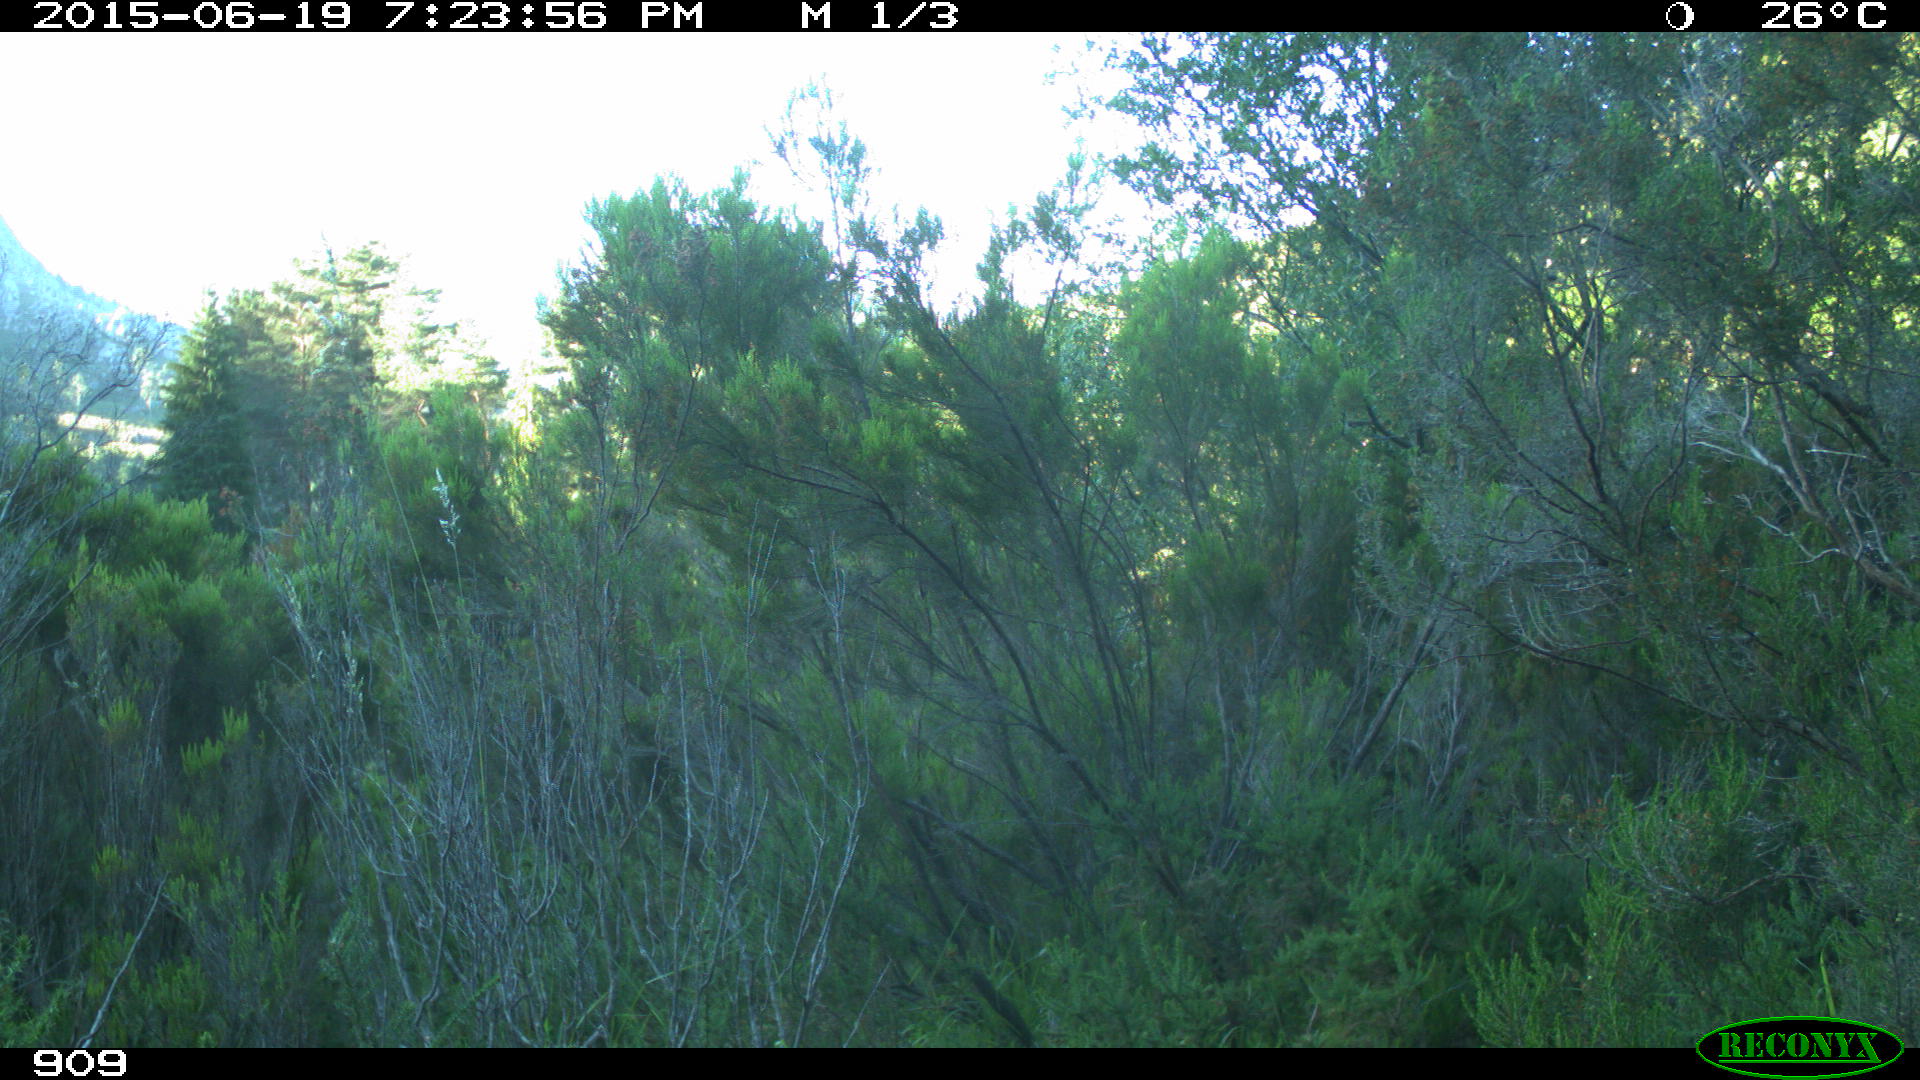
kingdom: Animalia
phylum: Chordata
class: Mammalia
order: Artiodactyla
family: Bovidae
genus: Bos
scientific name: Bos taurus
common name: Domesticated cattle
